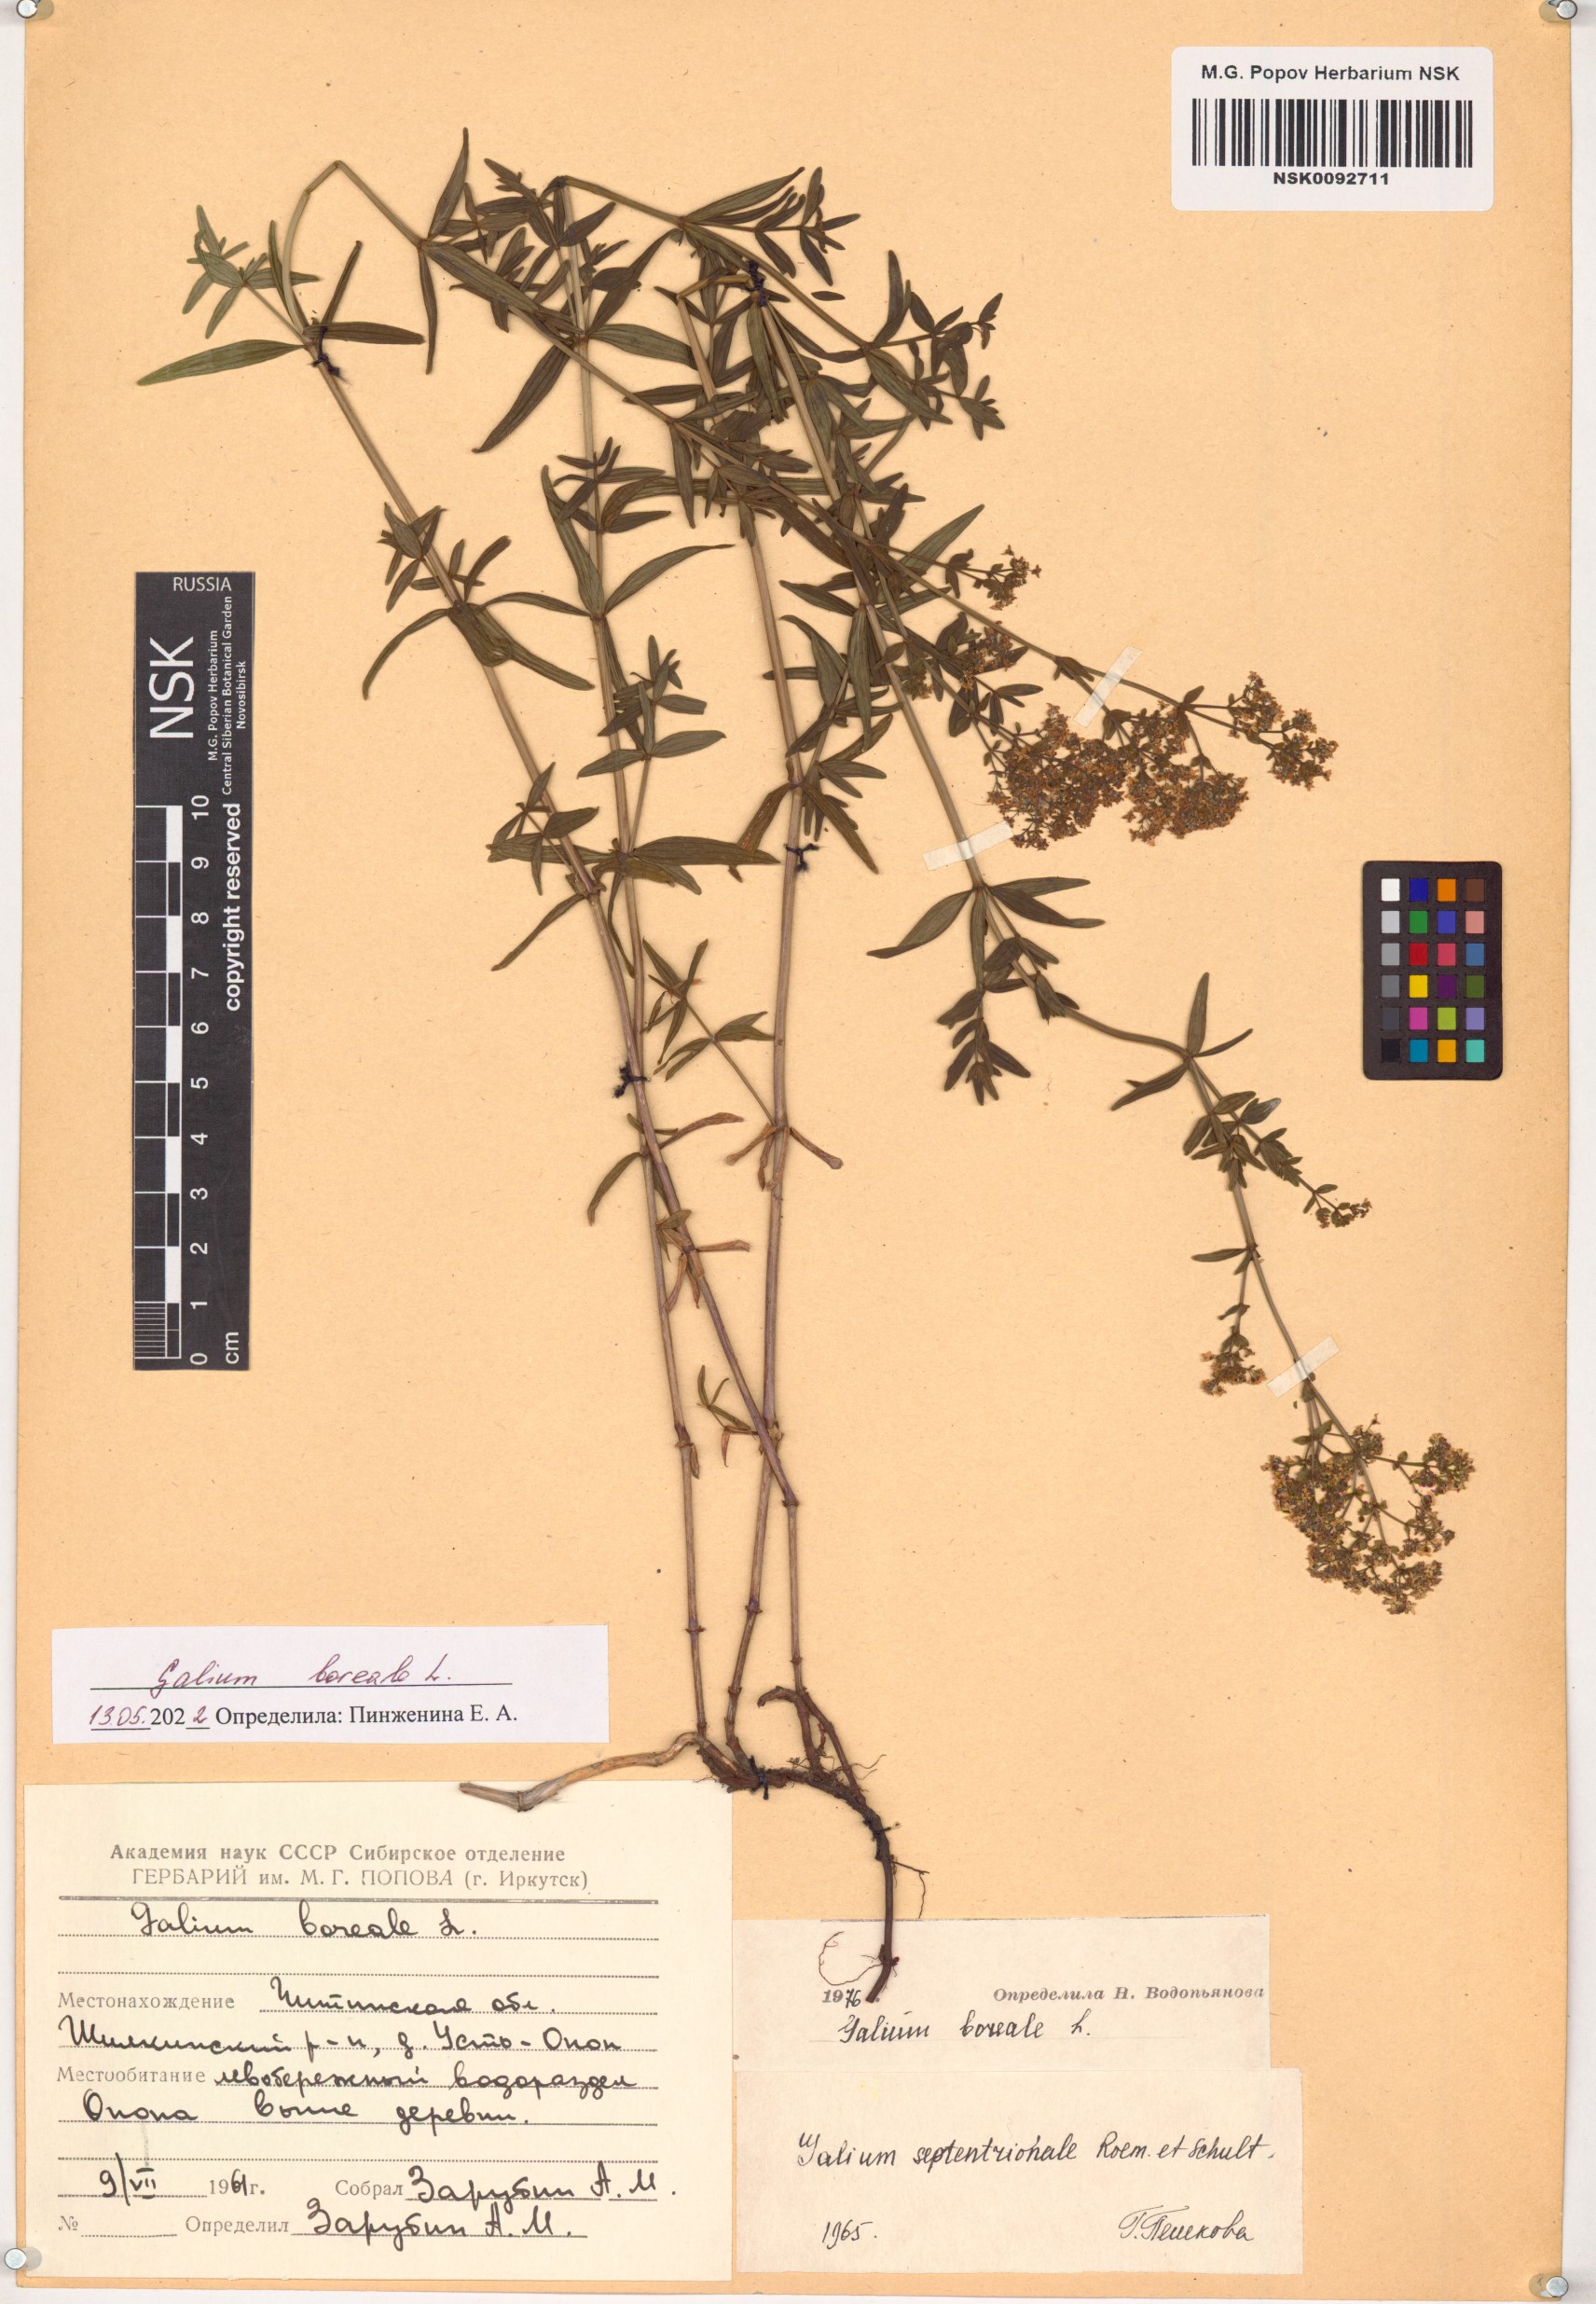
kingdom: Plantae
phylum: Tracheophyta
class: Magnoliopsida
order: Gentianales
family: Rubiaceae
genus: Galium
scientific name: Galium boreale
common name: Northern bedstraw
